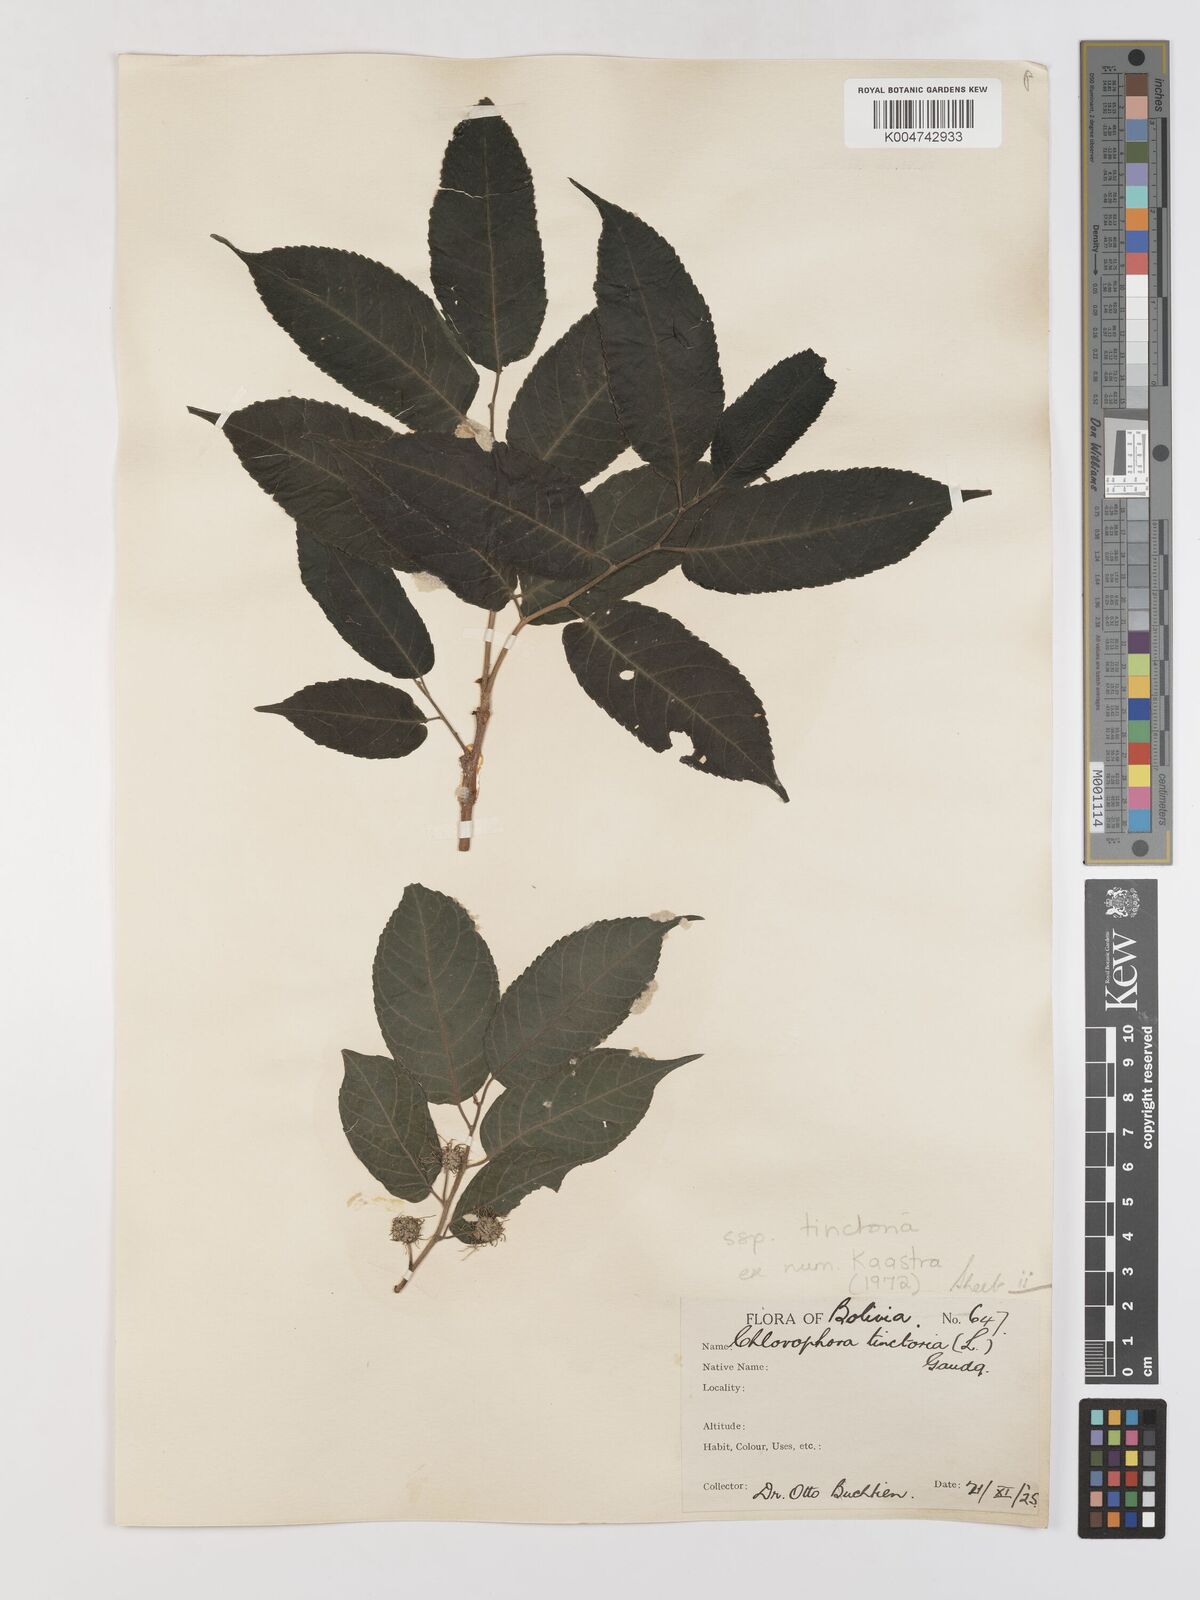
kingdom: Plantae
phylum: Tracheophyta
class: Magnoliopsida
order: Rosales
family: Moraceae
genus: Maclura
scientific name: Maclura tinctoria
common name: Old fustic
